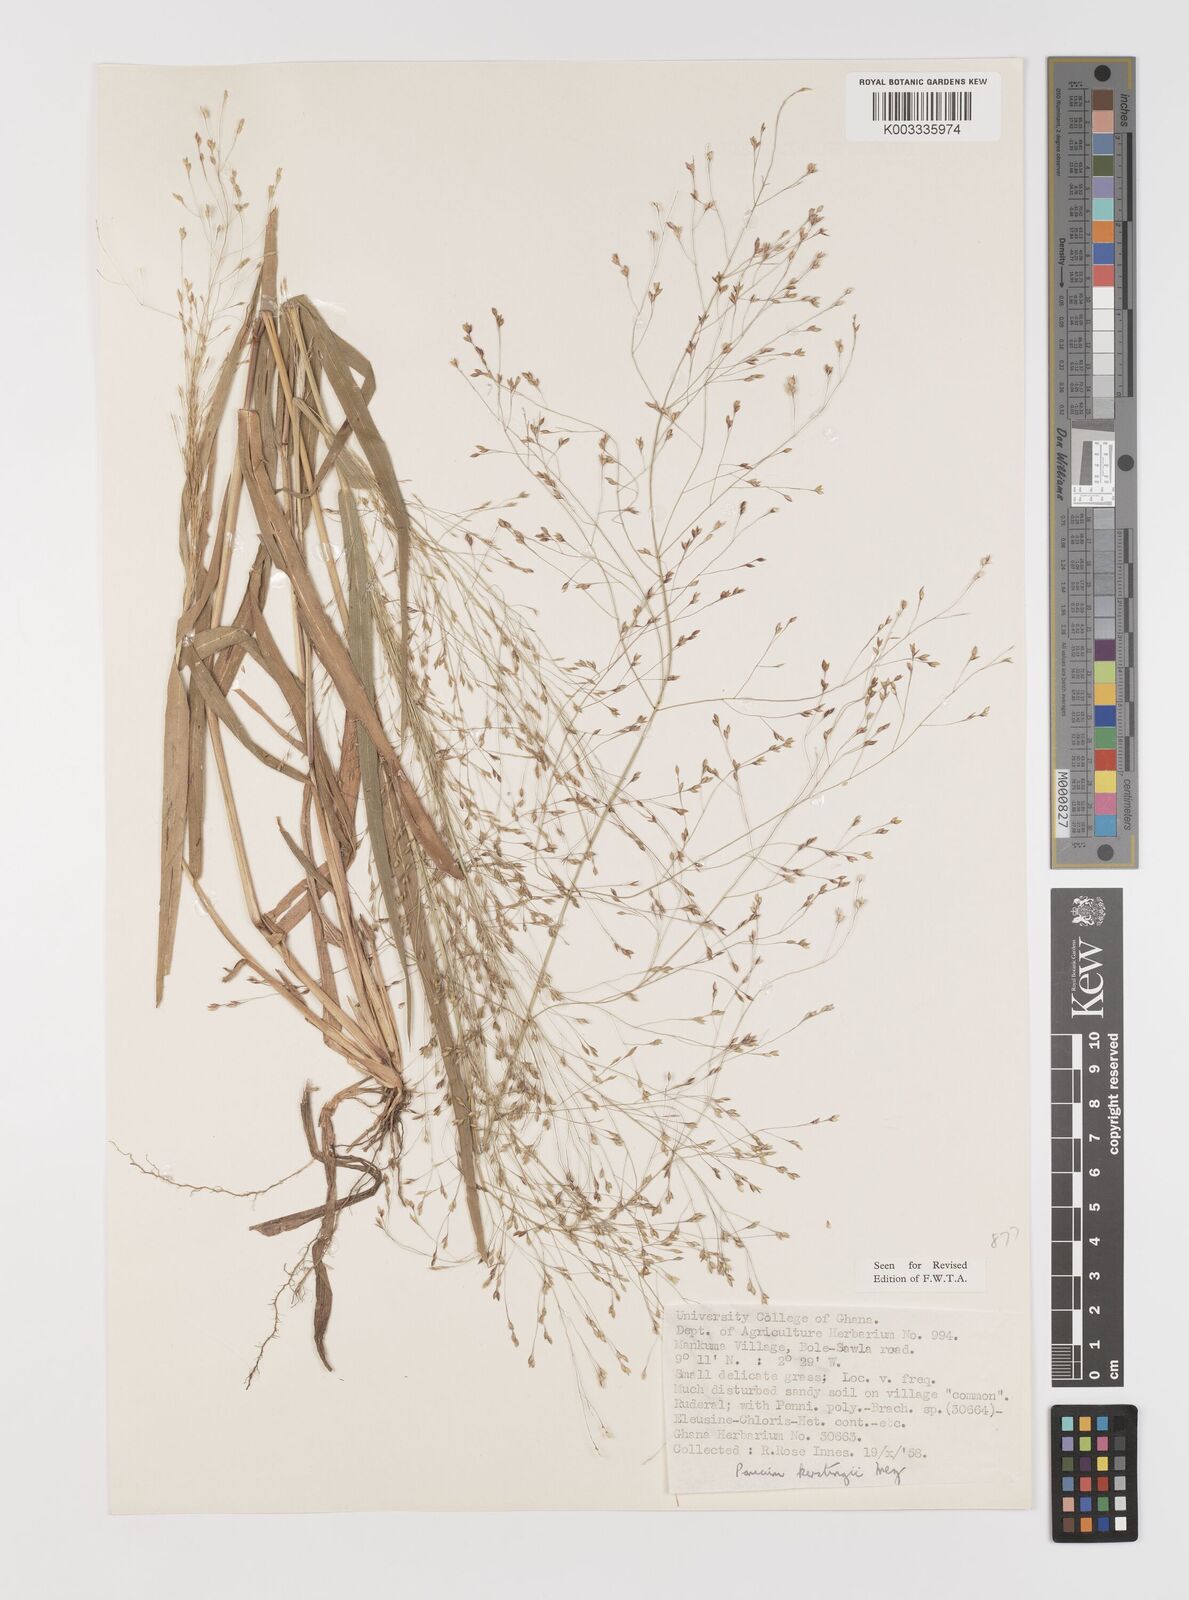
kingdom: Plantae
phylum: Tracheophyta
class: Liliopsida
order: Poales
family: Poaceae
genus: Panicum
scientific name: Panicum pansum
